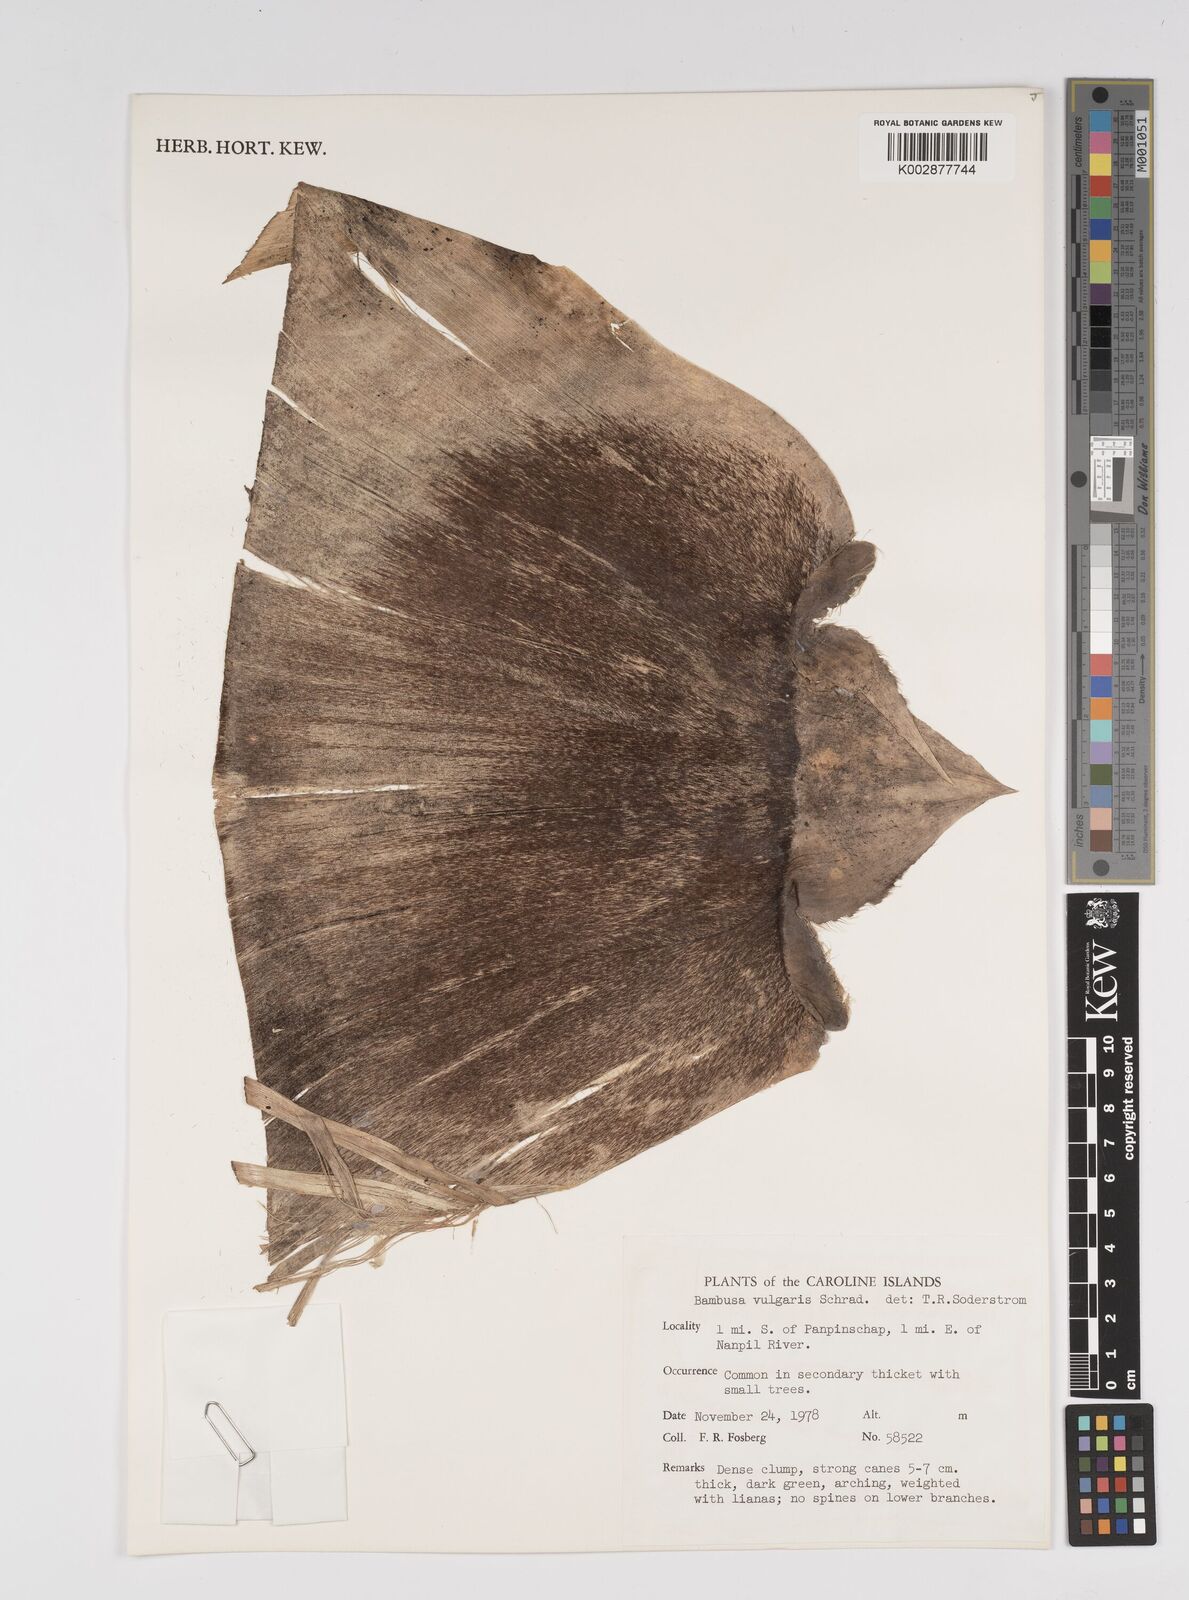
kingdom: Plantae
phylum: Tracheophyta
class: Liliopsida
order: Poales
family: Poaceae
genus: Bambusa
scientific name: Bambusa vulgaris
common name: Common bamboo
